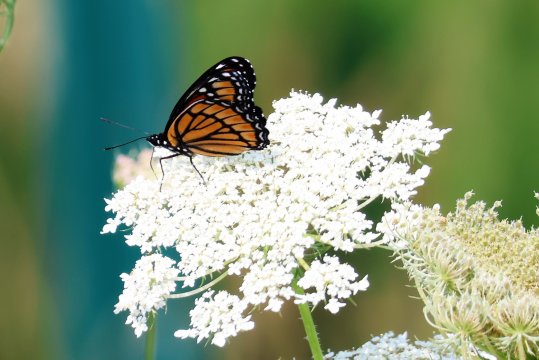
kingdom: Animalia
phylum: Arthropoda
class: Insecta
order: Lepidoptera
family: Nymphalidae
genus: Limenitis
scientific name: Limenitis archippus
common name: Viceroy
